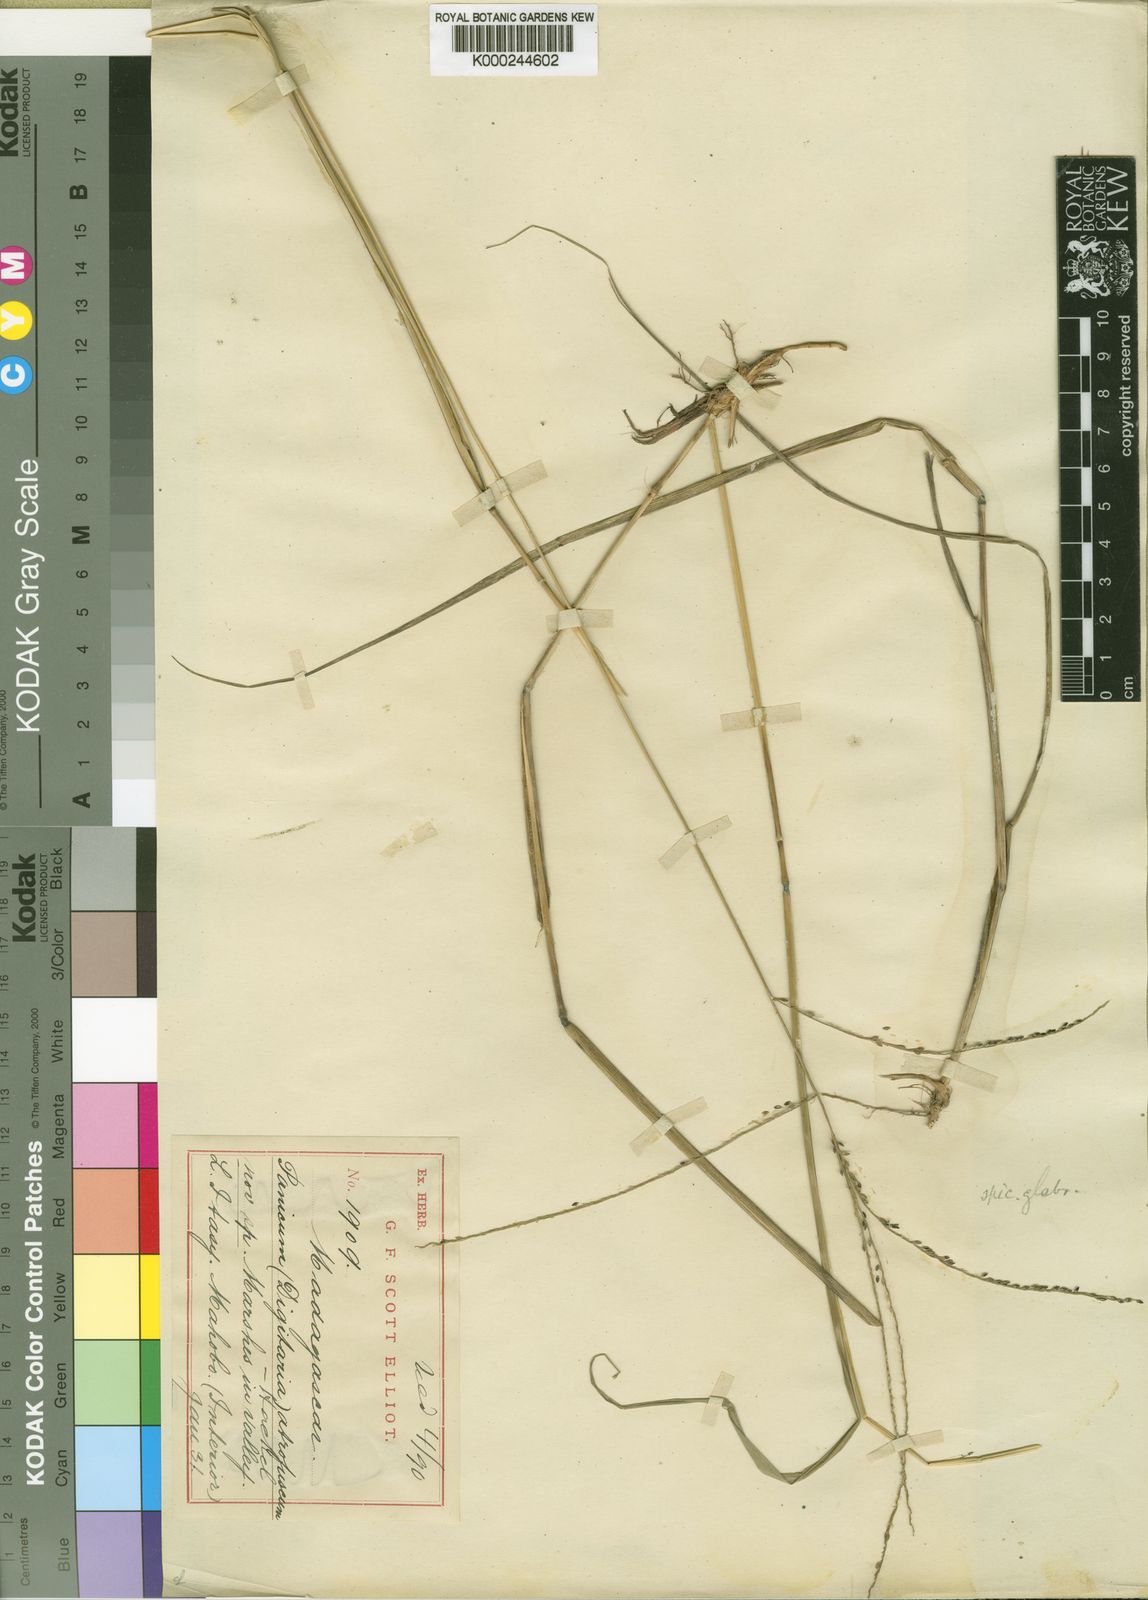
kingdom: Plantae
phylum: Tracheophyta
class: Liliopsida
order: Poales
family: Poaceae
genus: Digitaria
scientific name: Digitaria atrofusca
